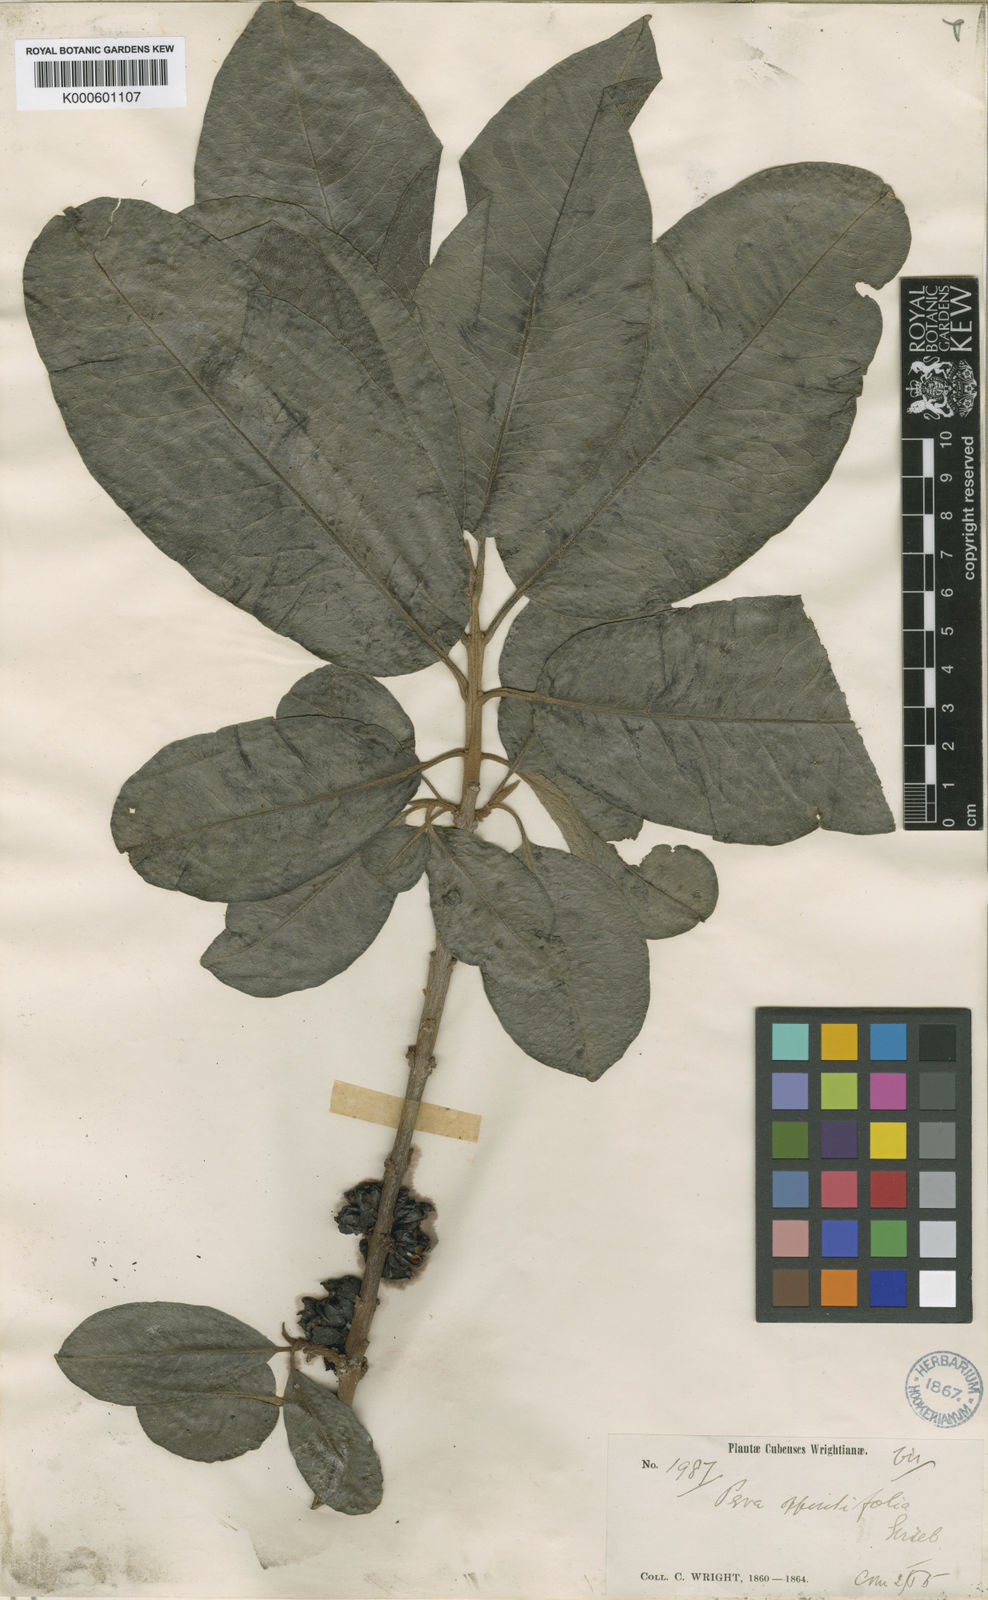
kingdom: Plantae
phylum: Tracheophyta
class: Magnoliopsida
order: Malpighiales
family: Peraceae
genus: Pera
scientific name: Pera oppositifolia
